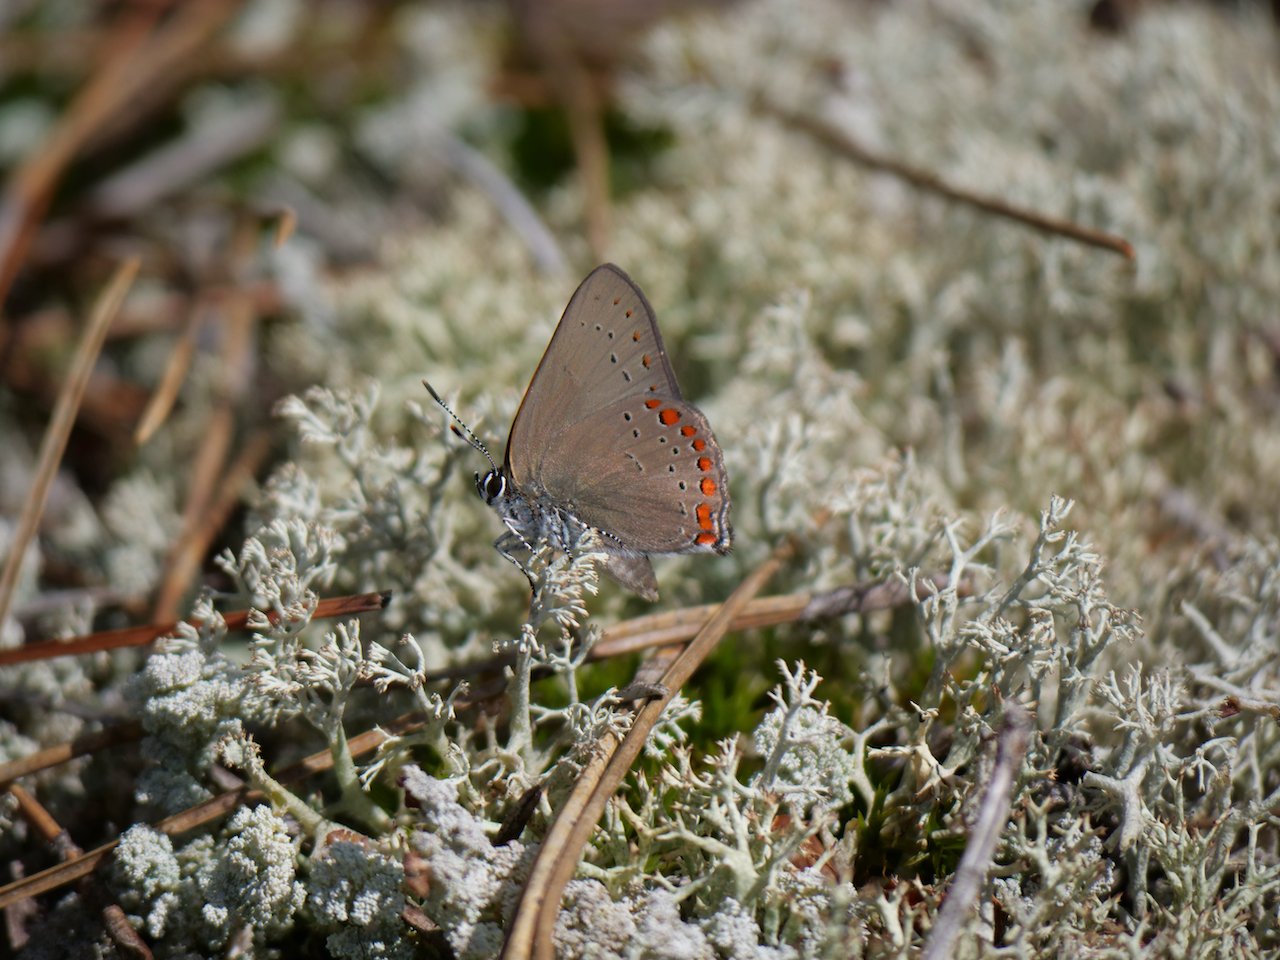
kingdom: Animalia
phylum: Arthropoda
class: Insecta
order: Lepidoptera
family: Lycaenidae
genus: Harkenclenus
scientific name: Harkenclenus titus
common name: Coral Hairstreak
